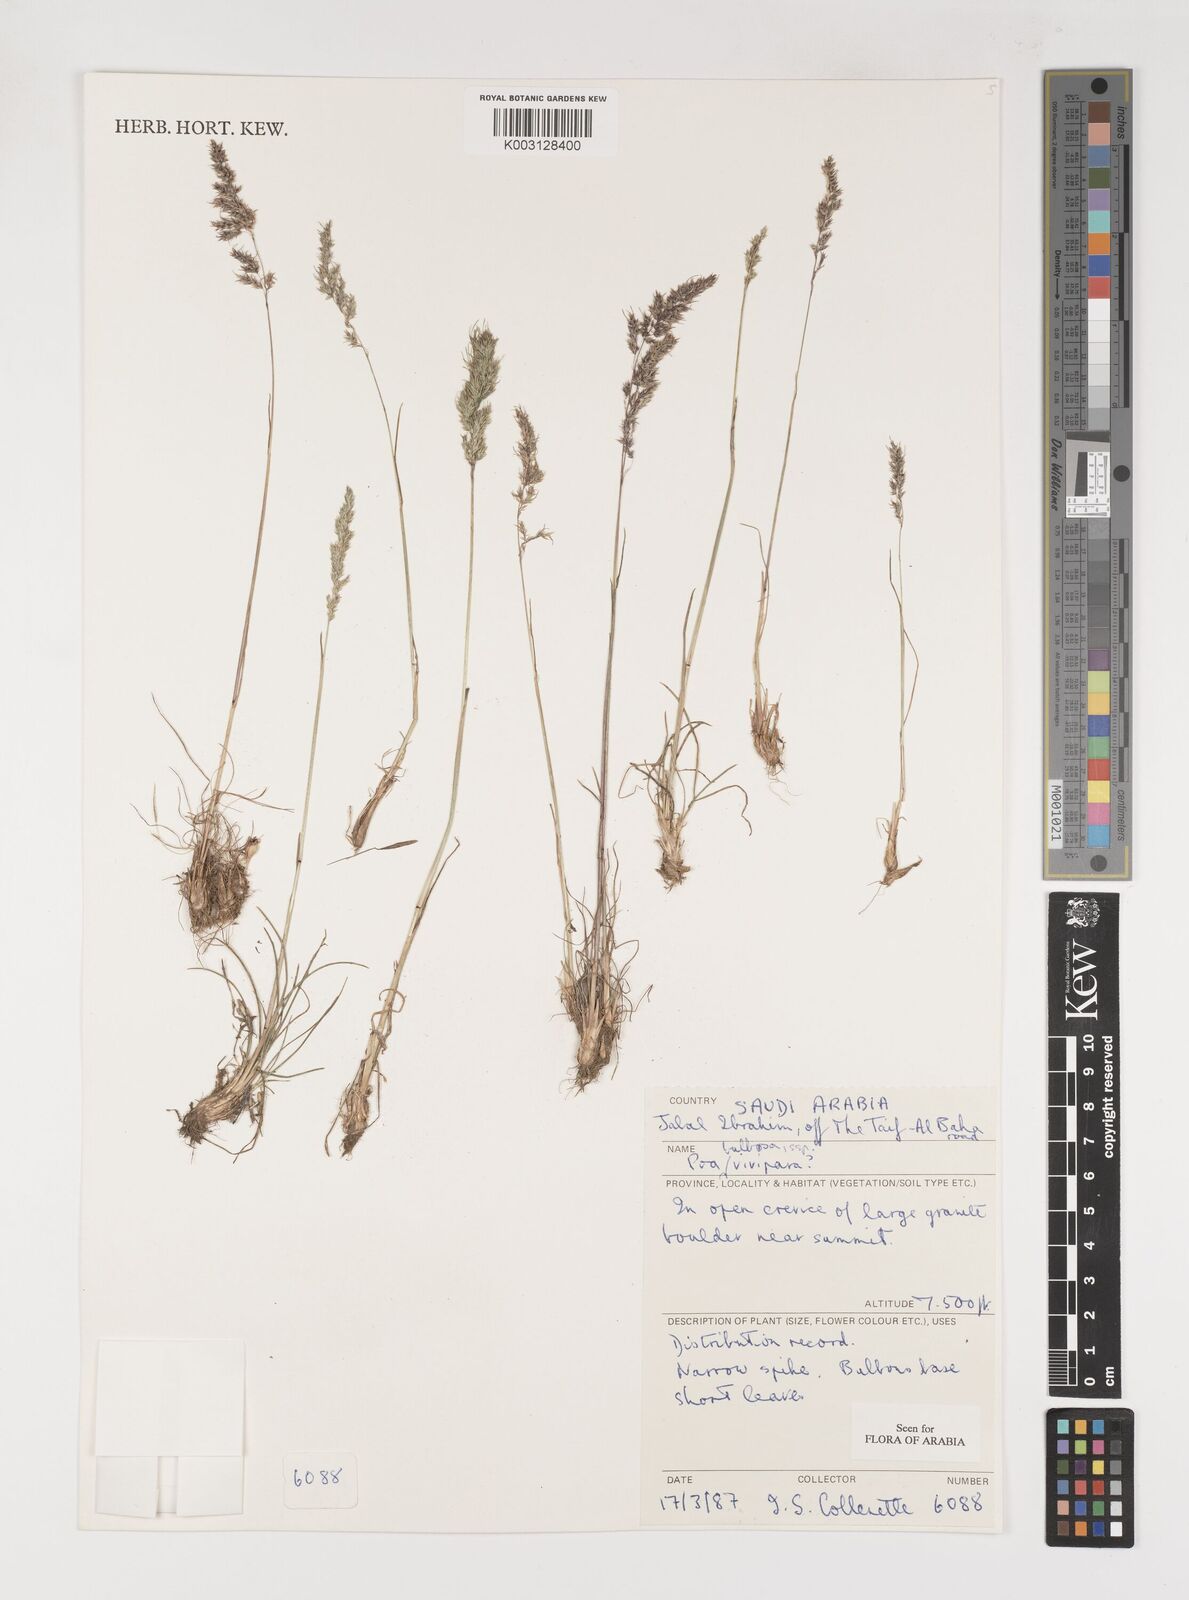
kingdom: Plantae
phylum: Tracheophyta
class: Liliopsida
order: Poales
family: Poaceae
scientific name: Poaceae
